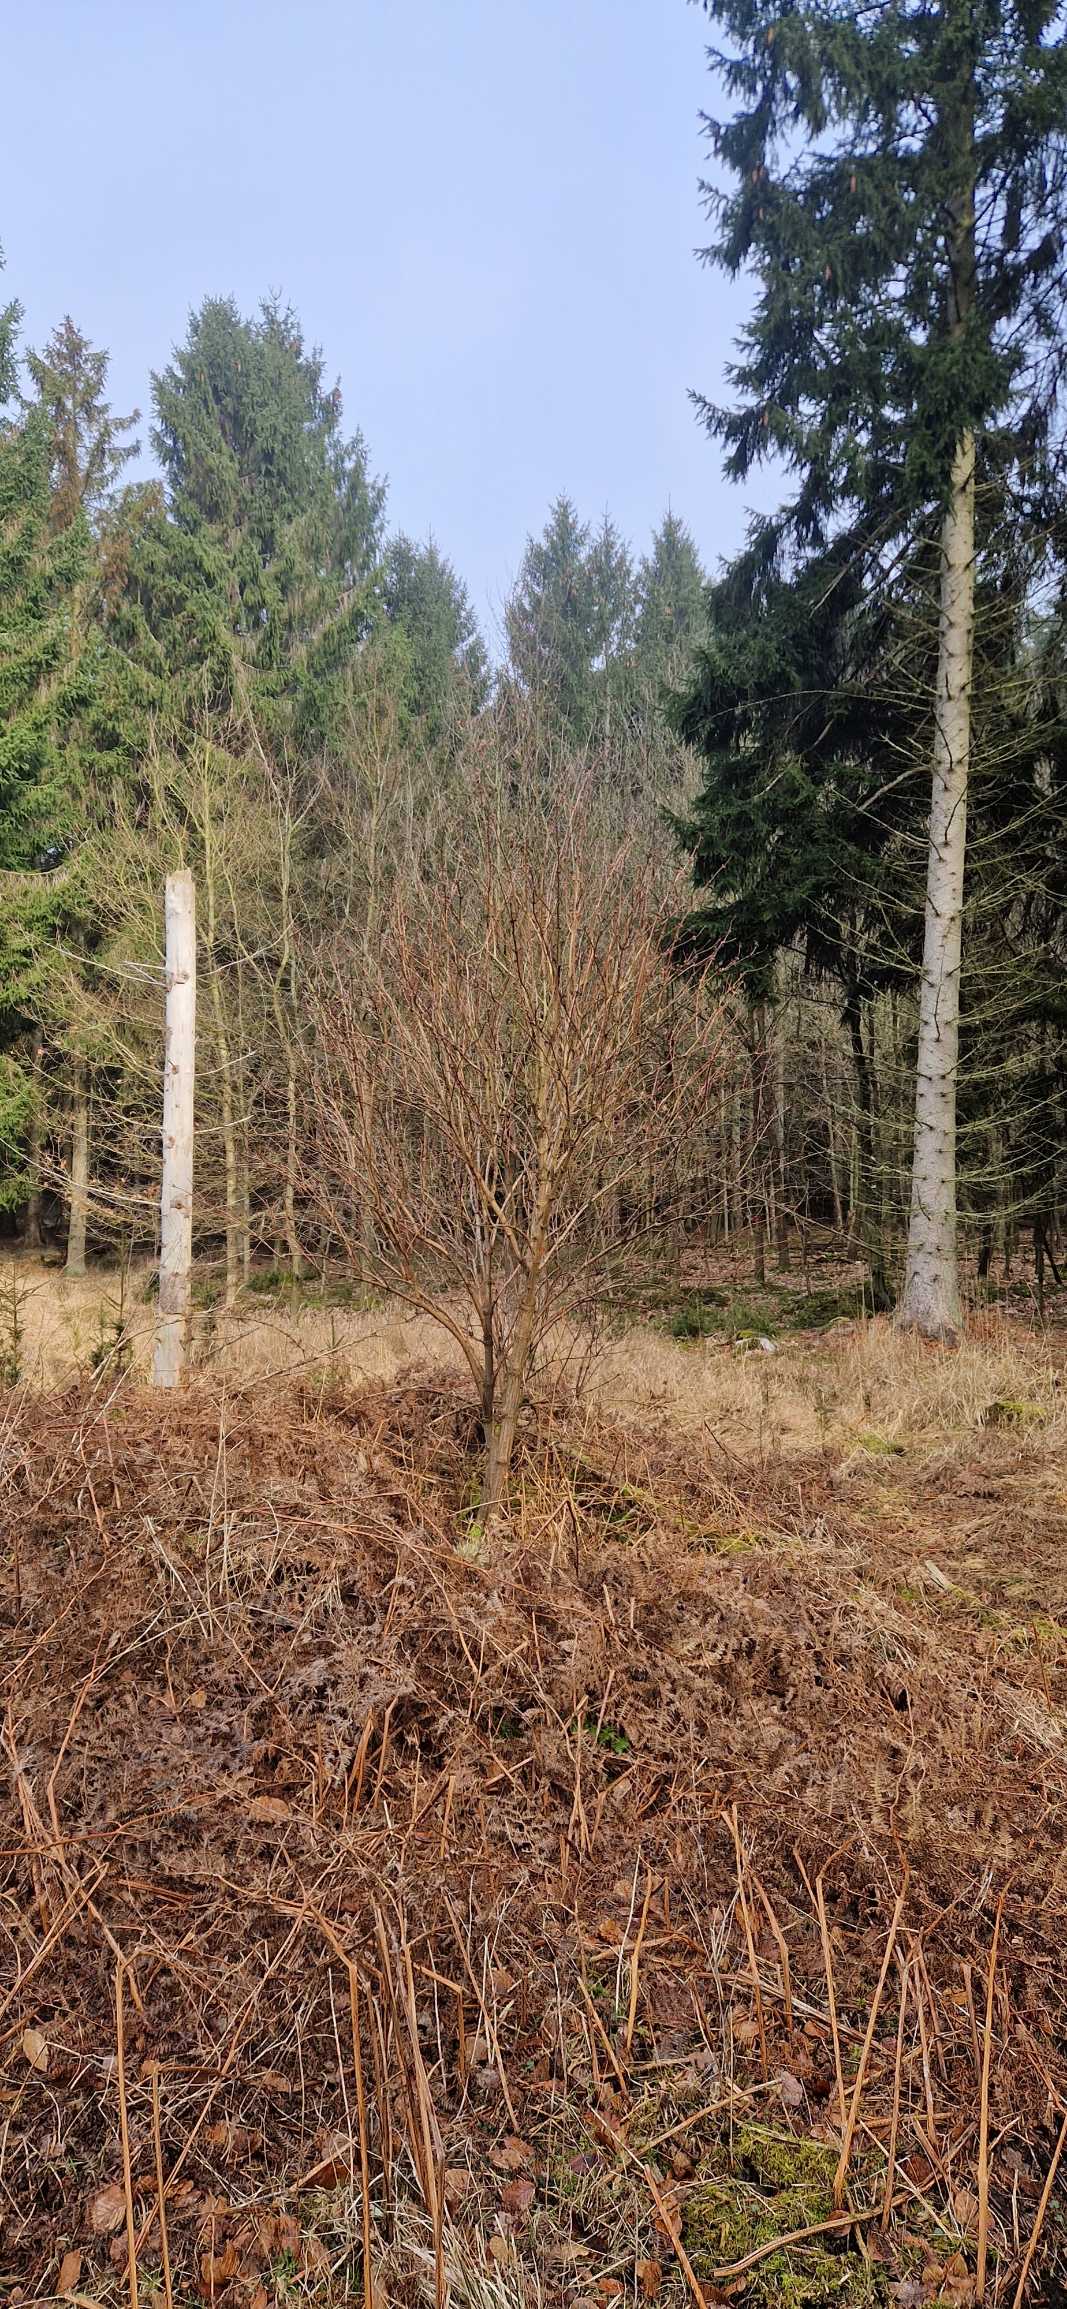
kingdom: Plantae
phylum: Tracheophyta
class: Magnoliopsida
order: Dipsacales
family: Viburnaceae
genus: Sambucus
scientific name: Sambucus racemosa
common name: Drue-hyld
